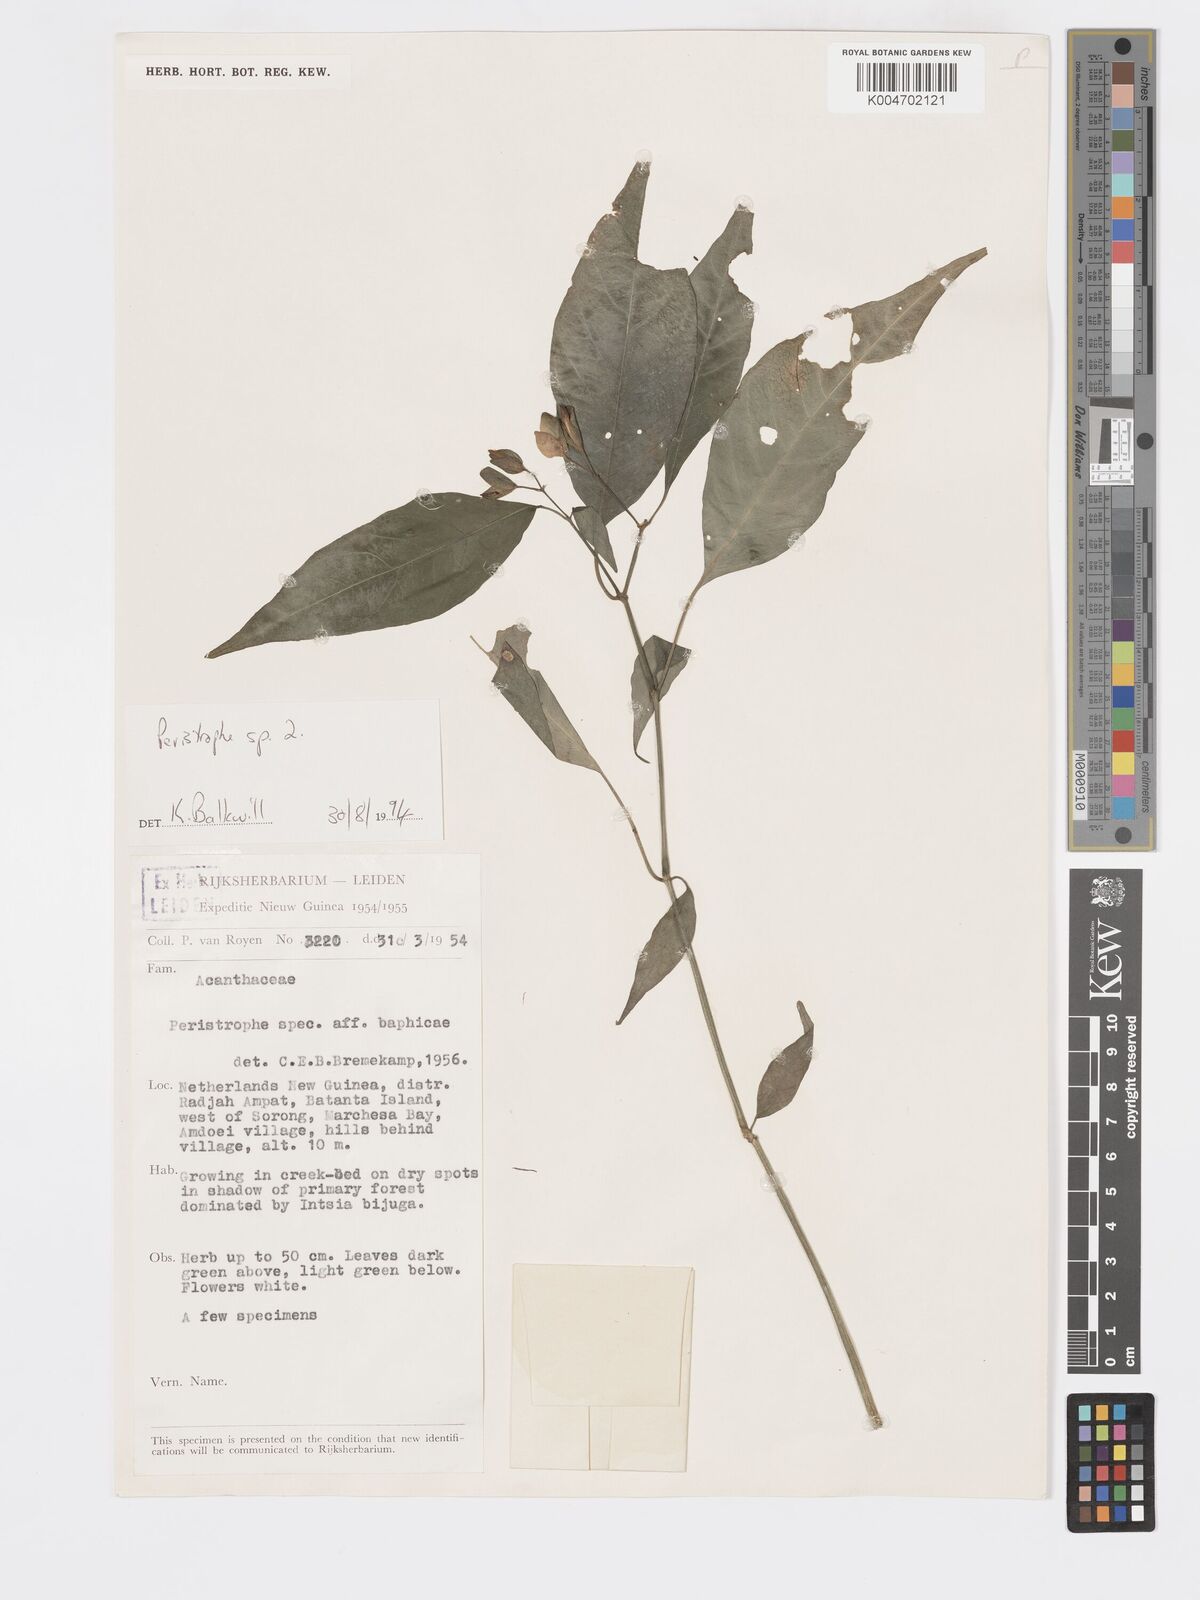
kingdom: Plantae
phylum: Tracheophyta
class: Magnoliopsida
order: Lamiales
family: Acanthaceae
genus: Dicliptera
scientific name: Dicliptera baphica
